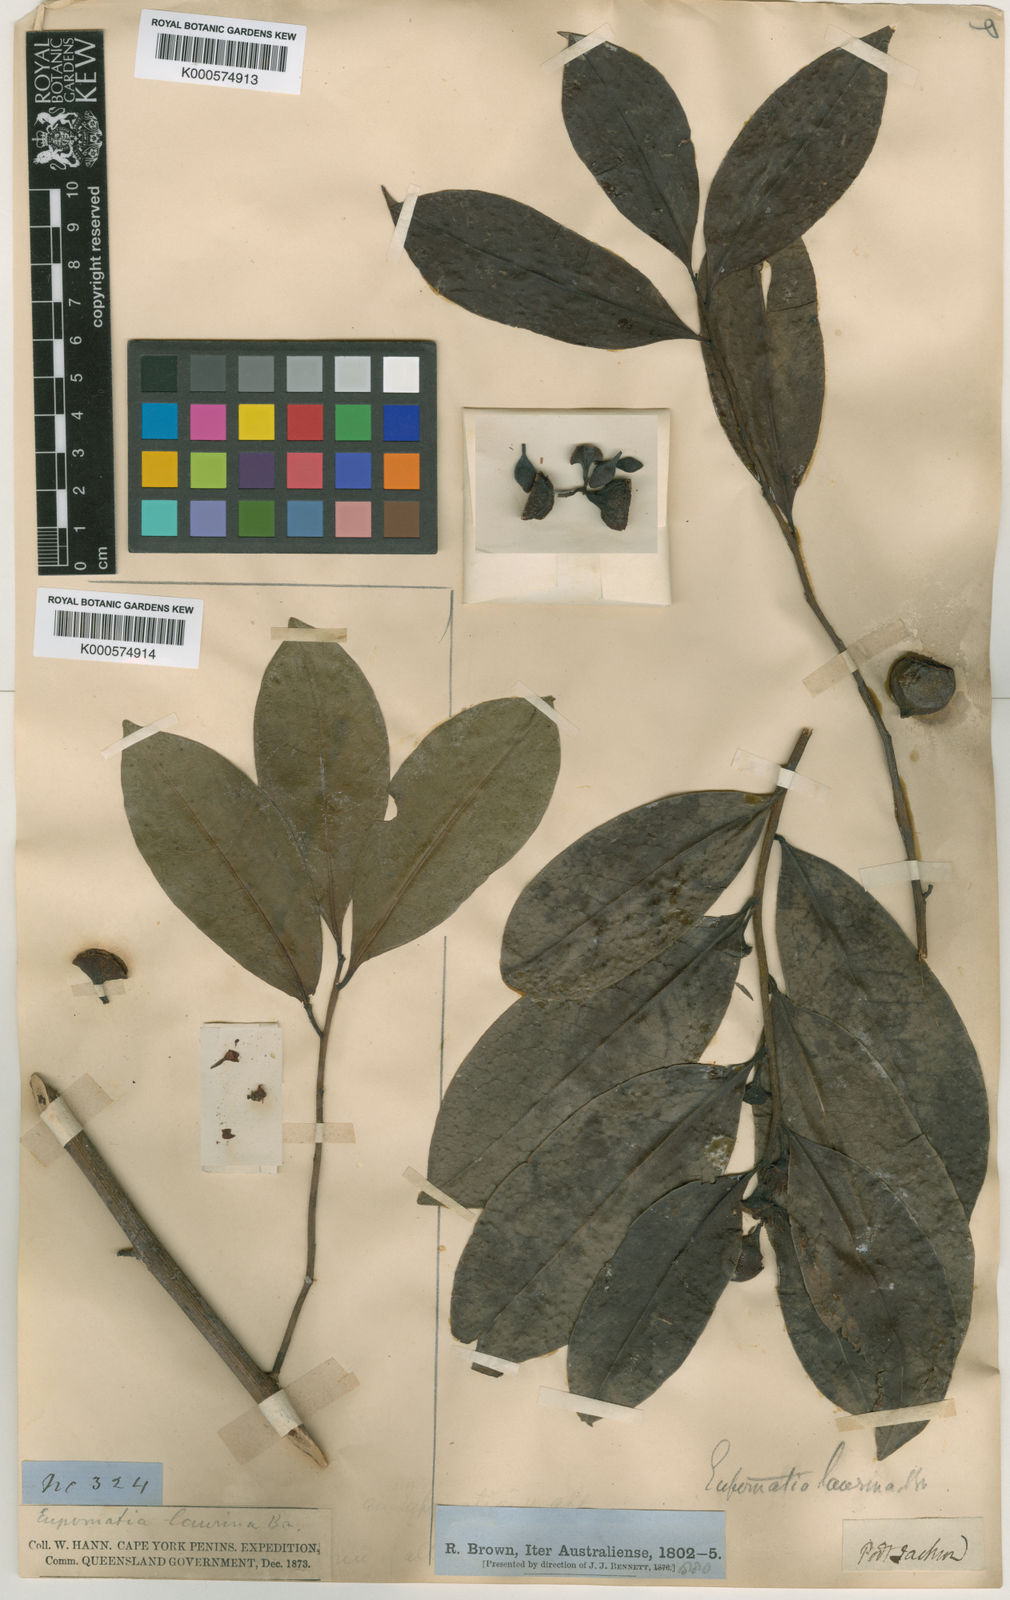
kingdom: Plantae
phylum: Tracheophyta
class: Magnoliopsida
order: Magnoliales
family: Eupomatiaceae
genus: Eupomatia
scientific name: Eupomatia laurina
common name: Bolwarra
